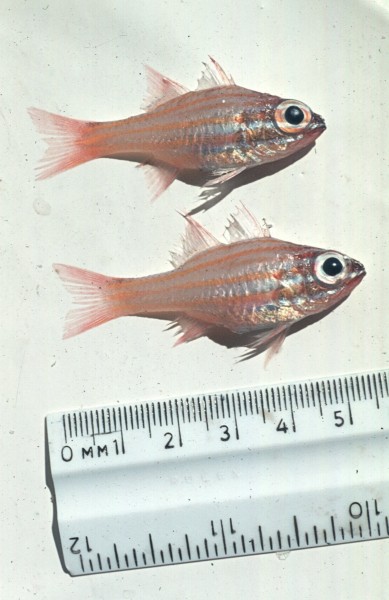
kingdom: Animalia
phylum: Chordata
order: Perciformes
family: Apogonidae
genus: Ostorhinchus
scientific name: Ostorhinchus cyanosoma
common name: Yellow-striped cardinalfish
